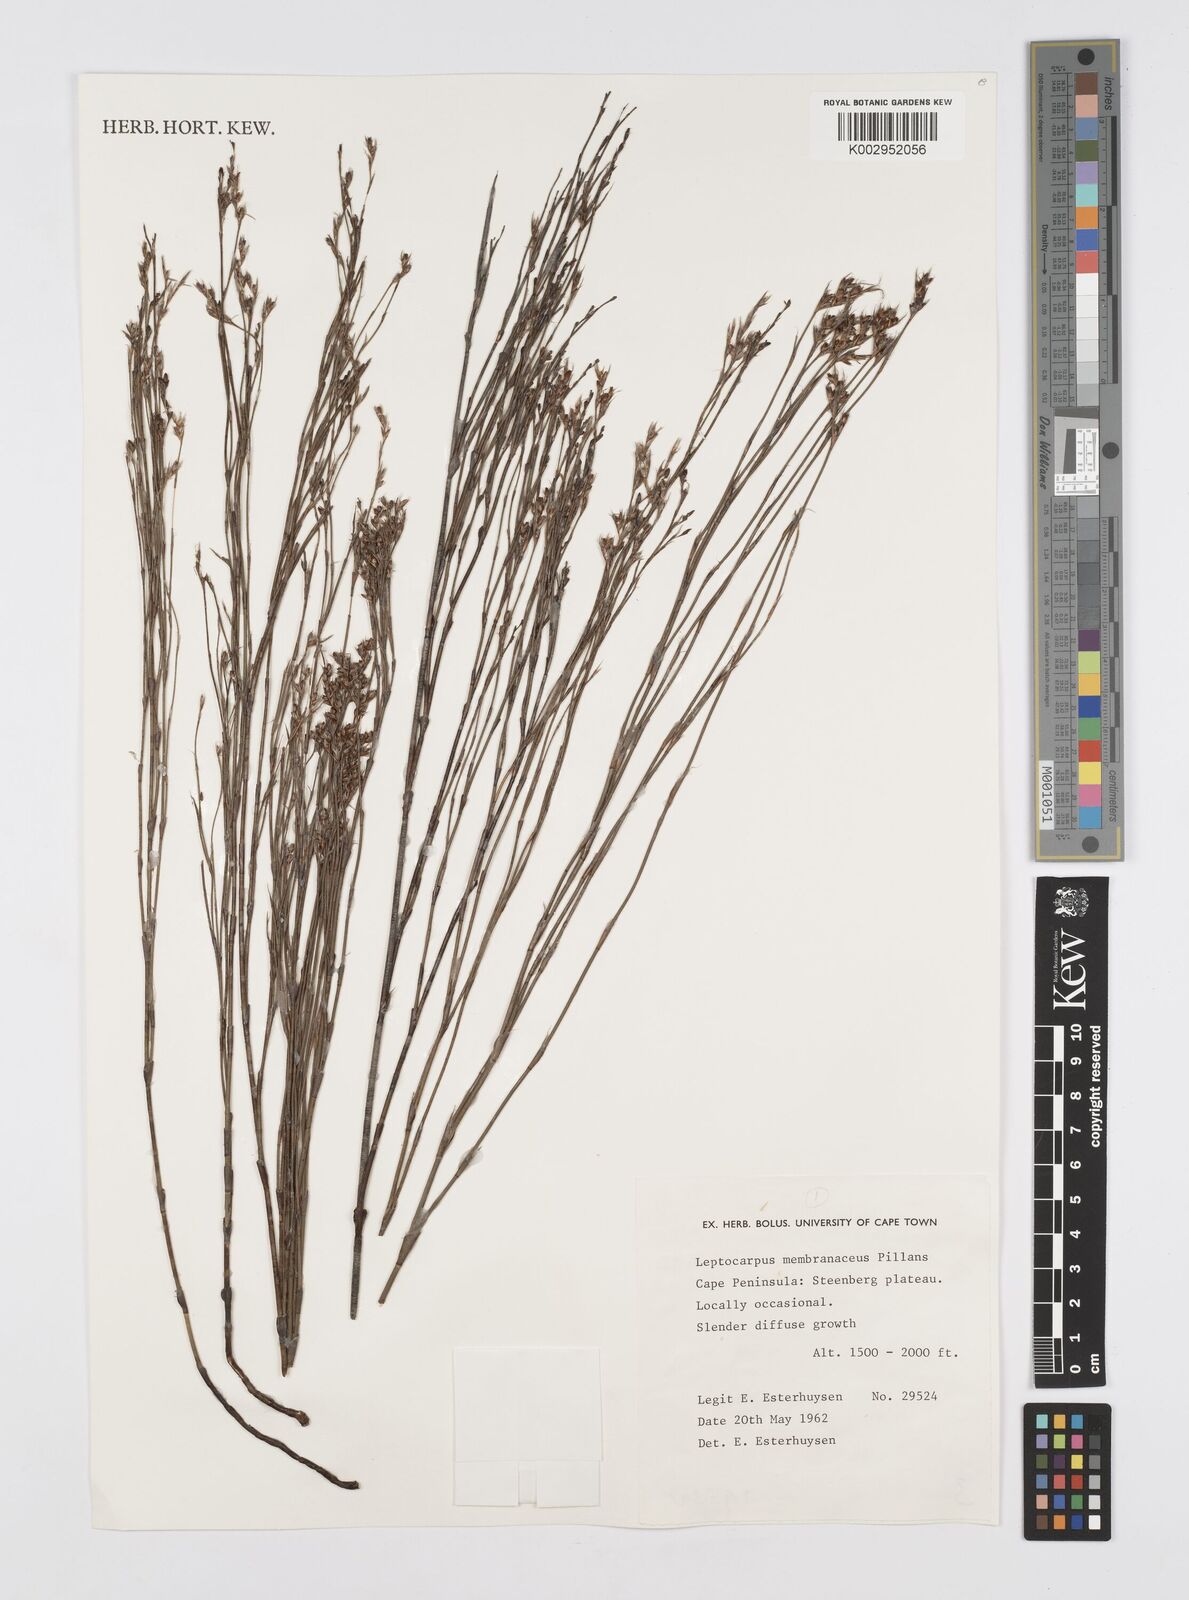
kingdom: Plantae
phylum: Tracheophyta
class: Liliopsida
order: Poales
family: Restionaceae
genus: Elegia
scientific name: Elegia intermedia
